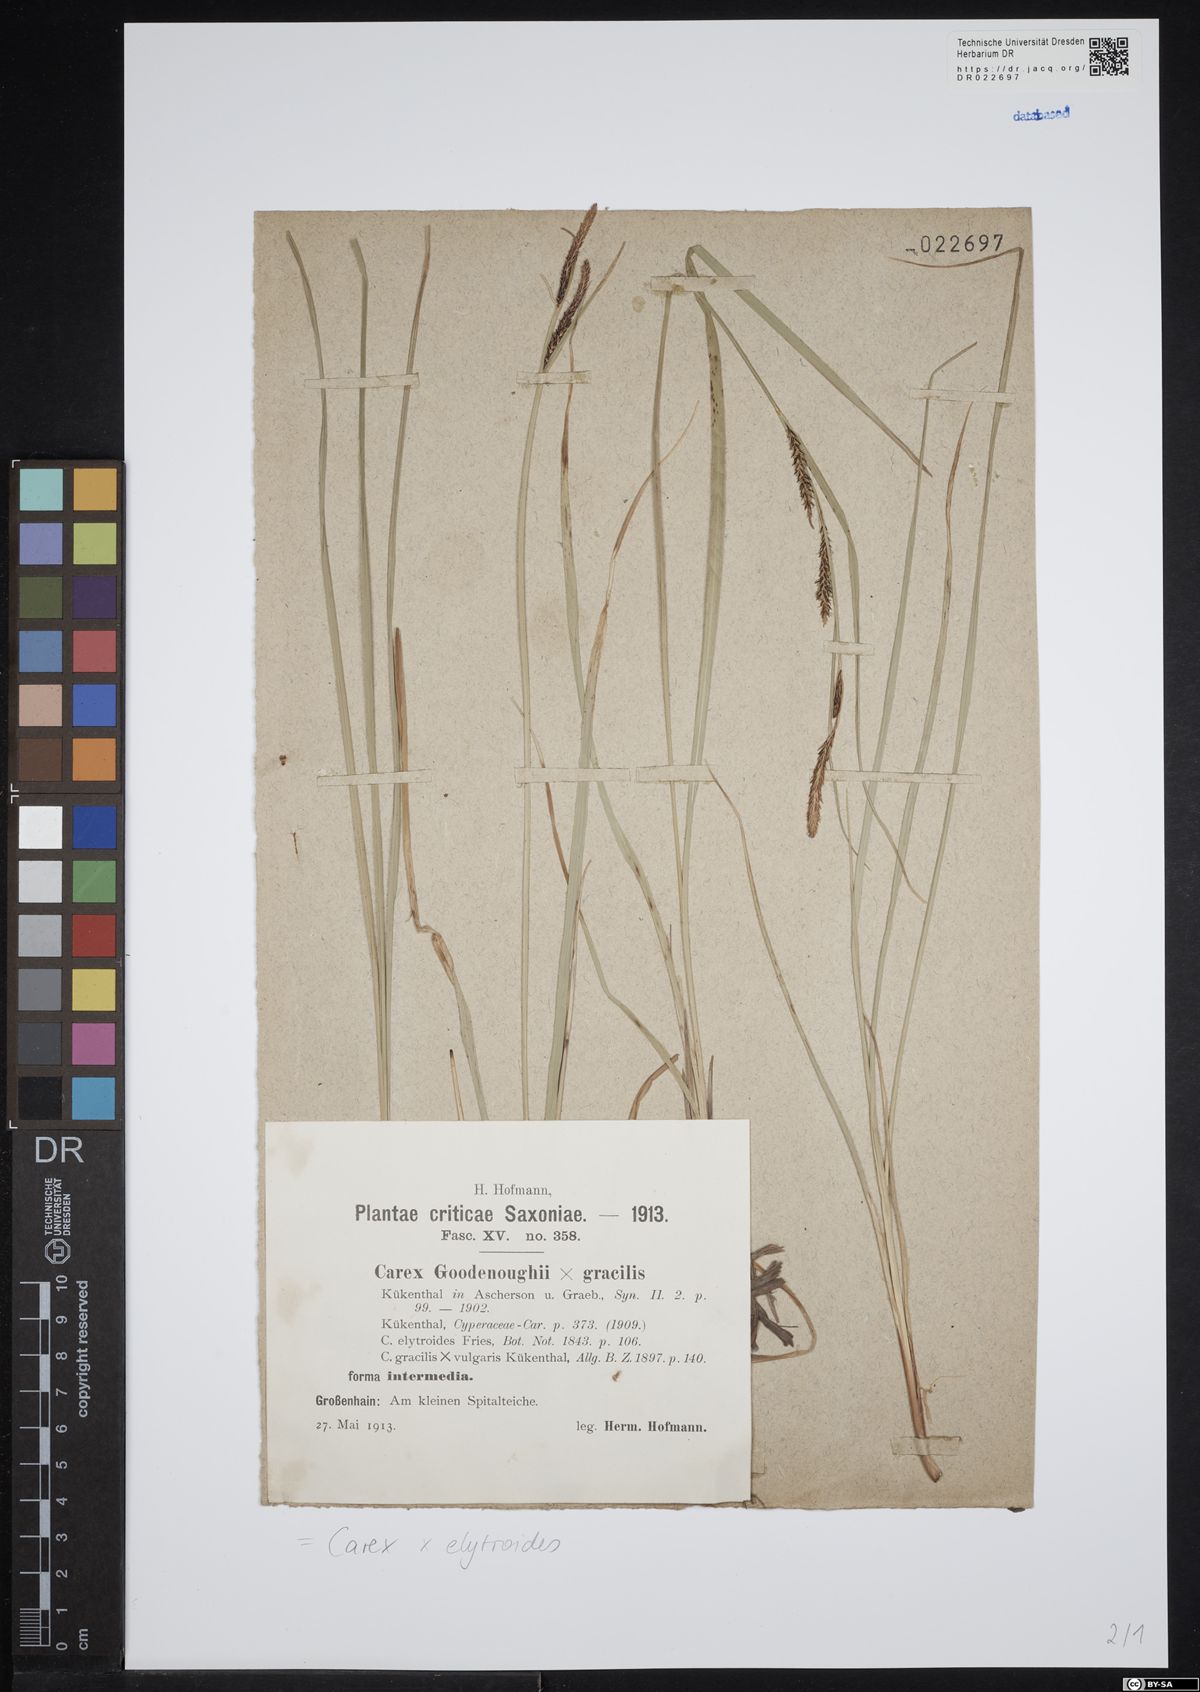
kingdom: Plantae
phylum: Tracheophyta
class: Liliopsida
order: Poales
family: Cyperaceae
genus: Carex
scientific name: Carex elytroides
